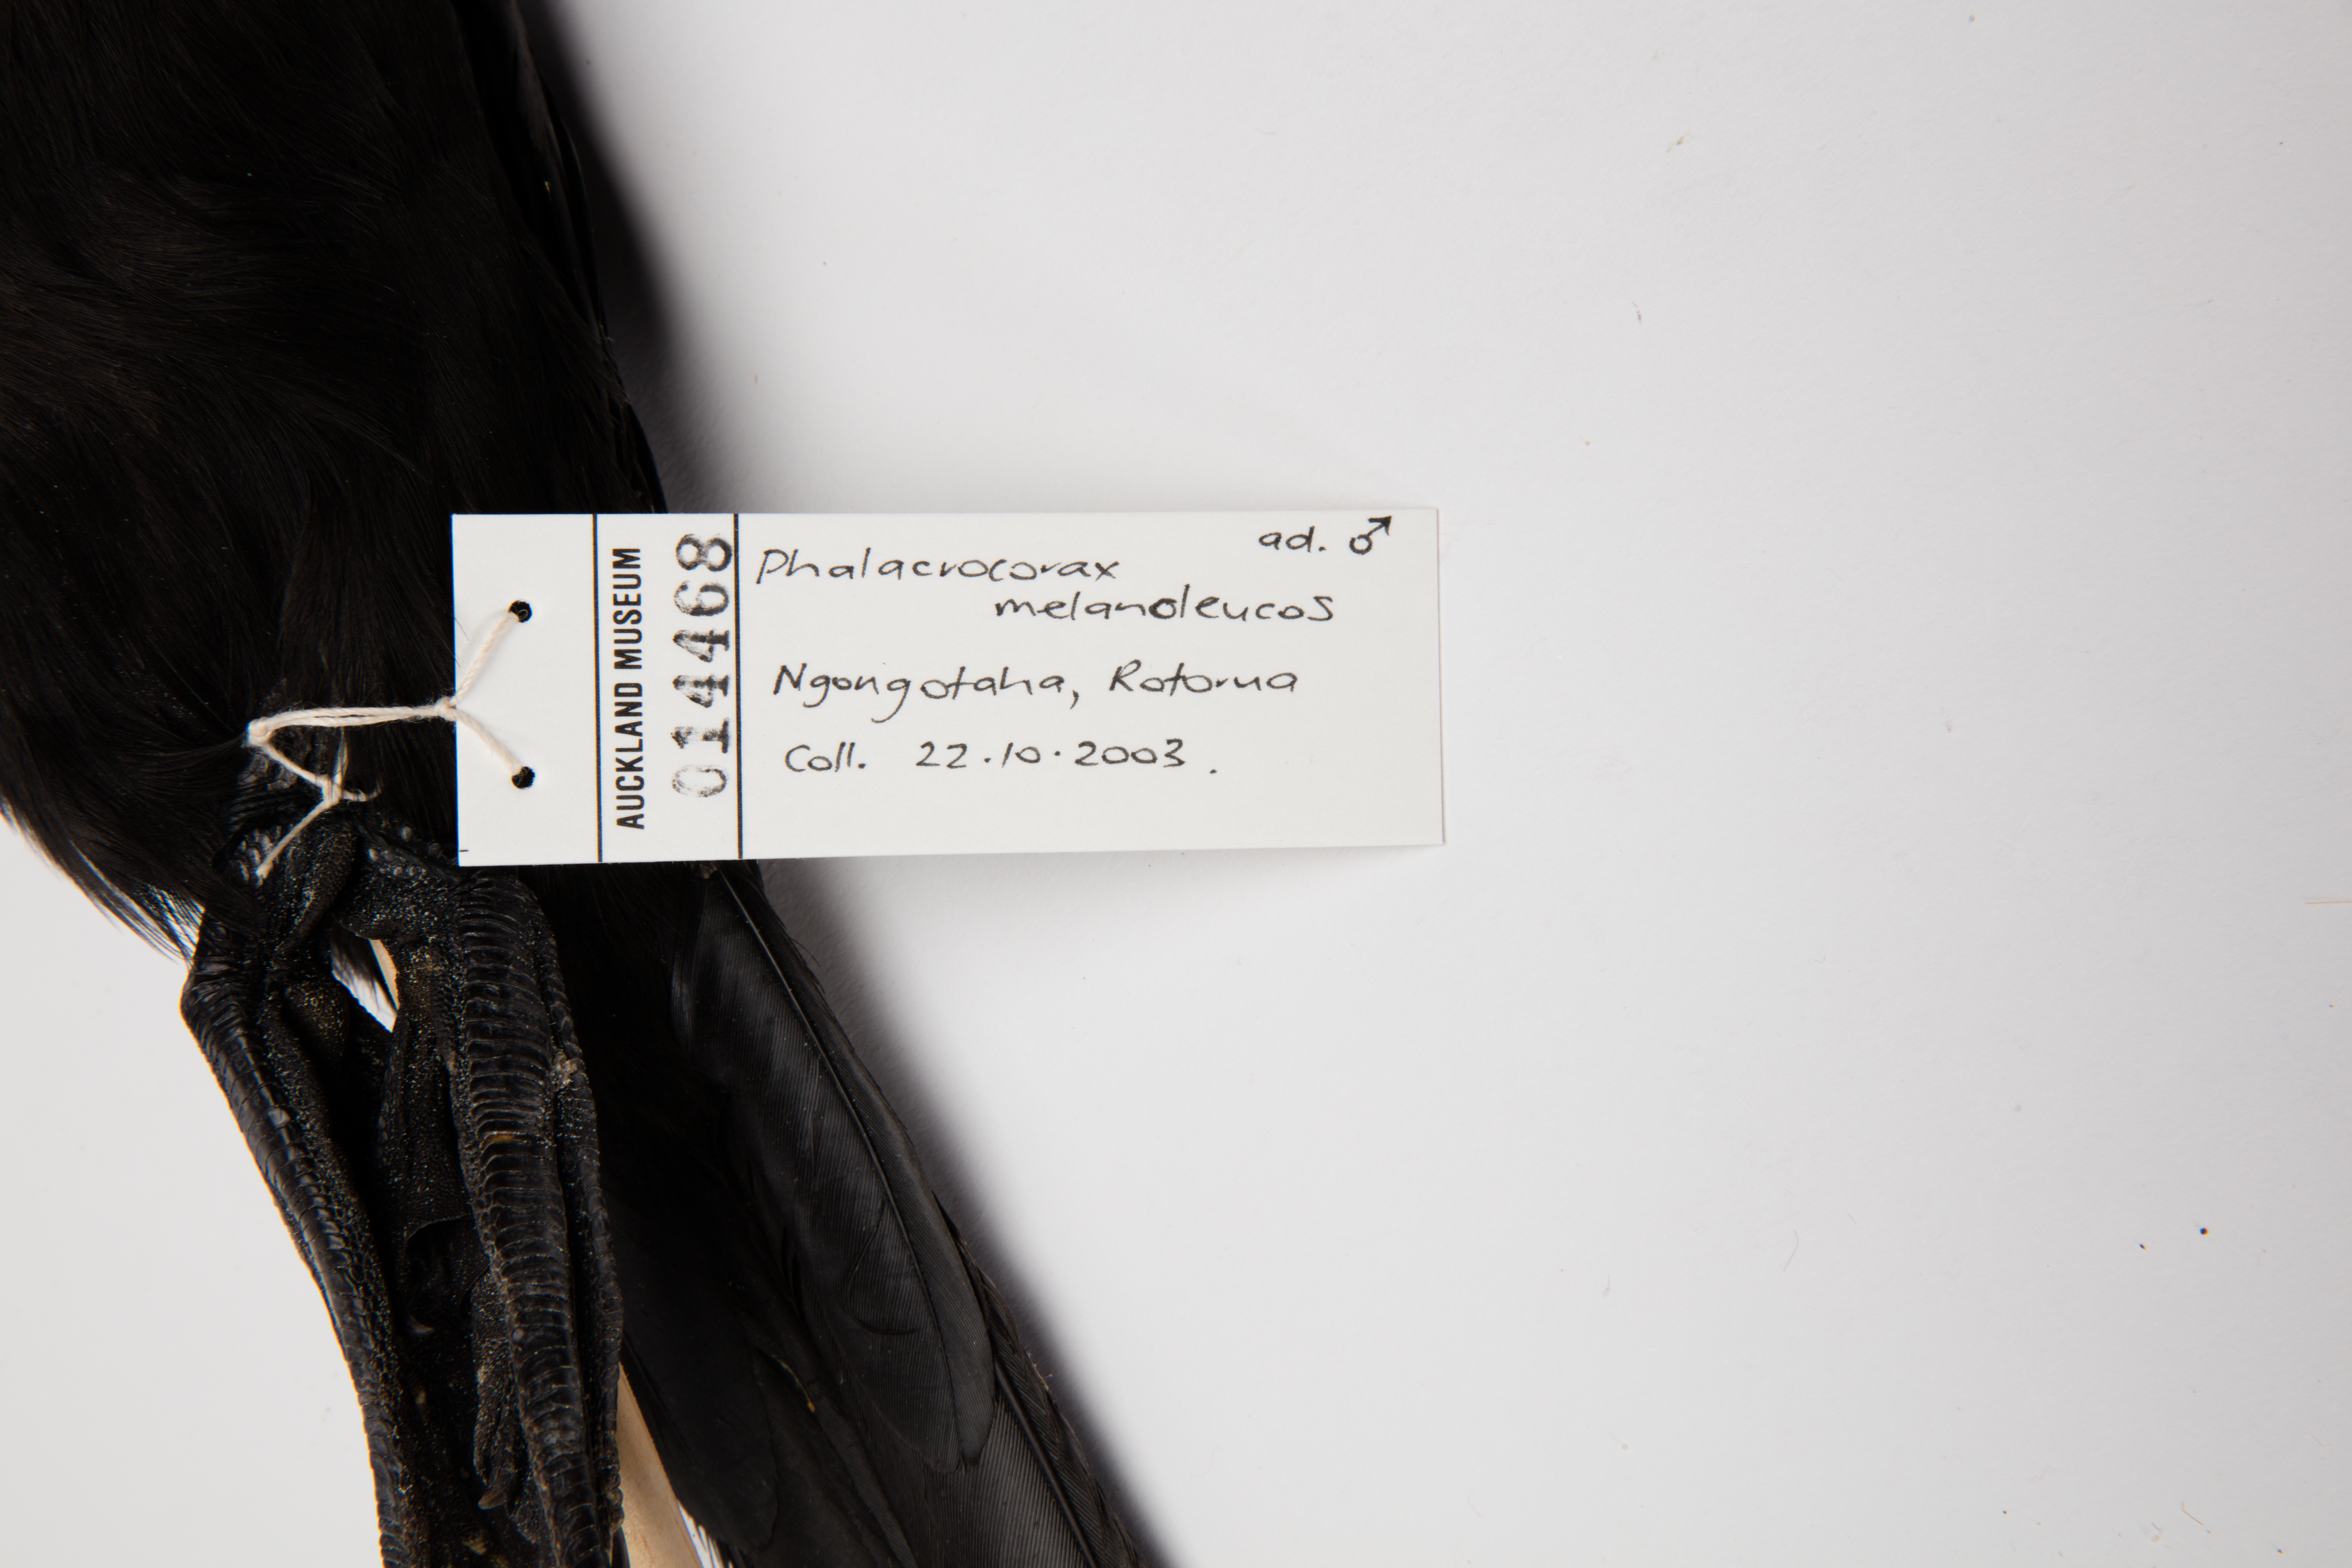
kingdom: Animalia
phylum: Chordata
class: Aves
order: Suliformes
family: Phalacrocoracidae
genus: Microcarbo
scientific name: Microcarbo melanoleucos
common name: Little pied cormorant
